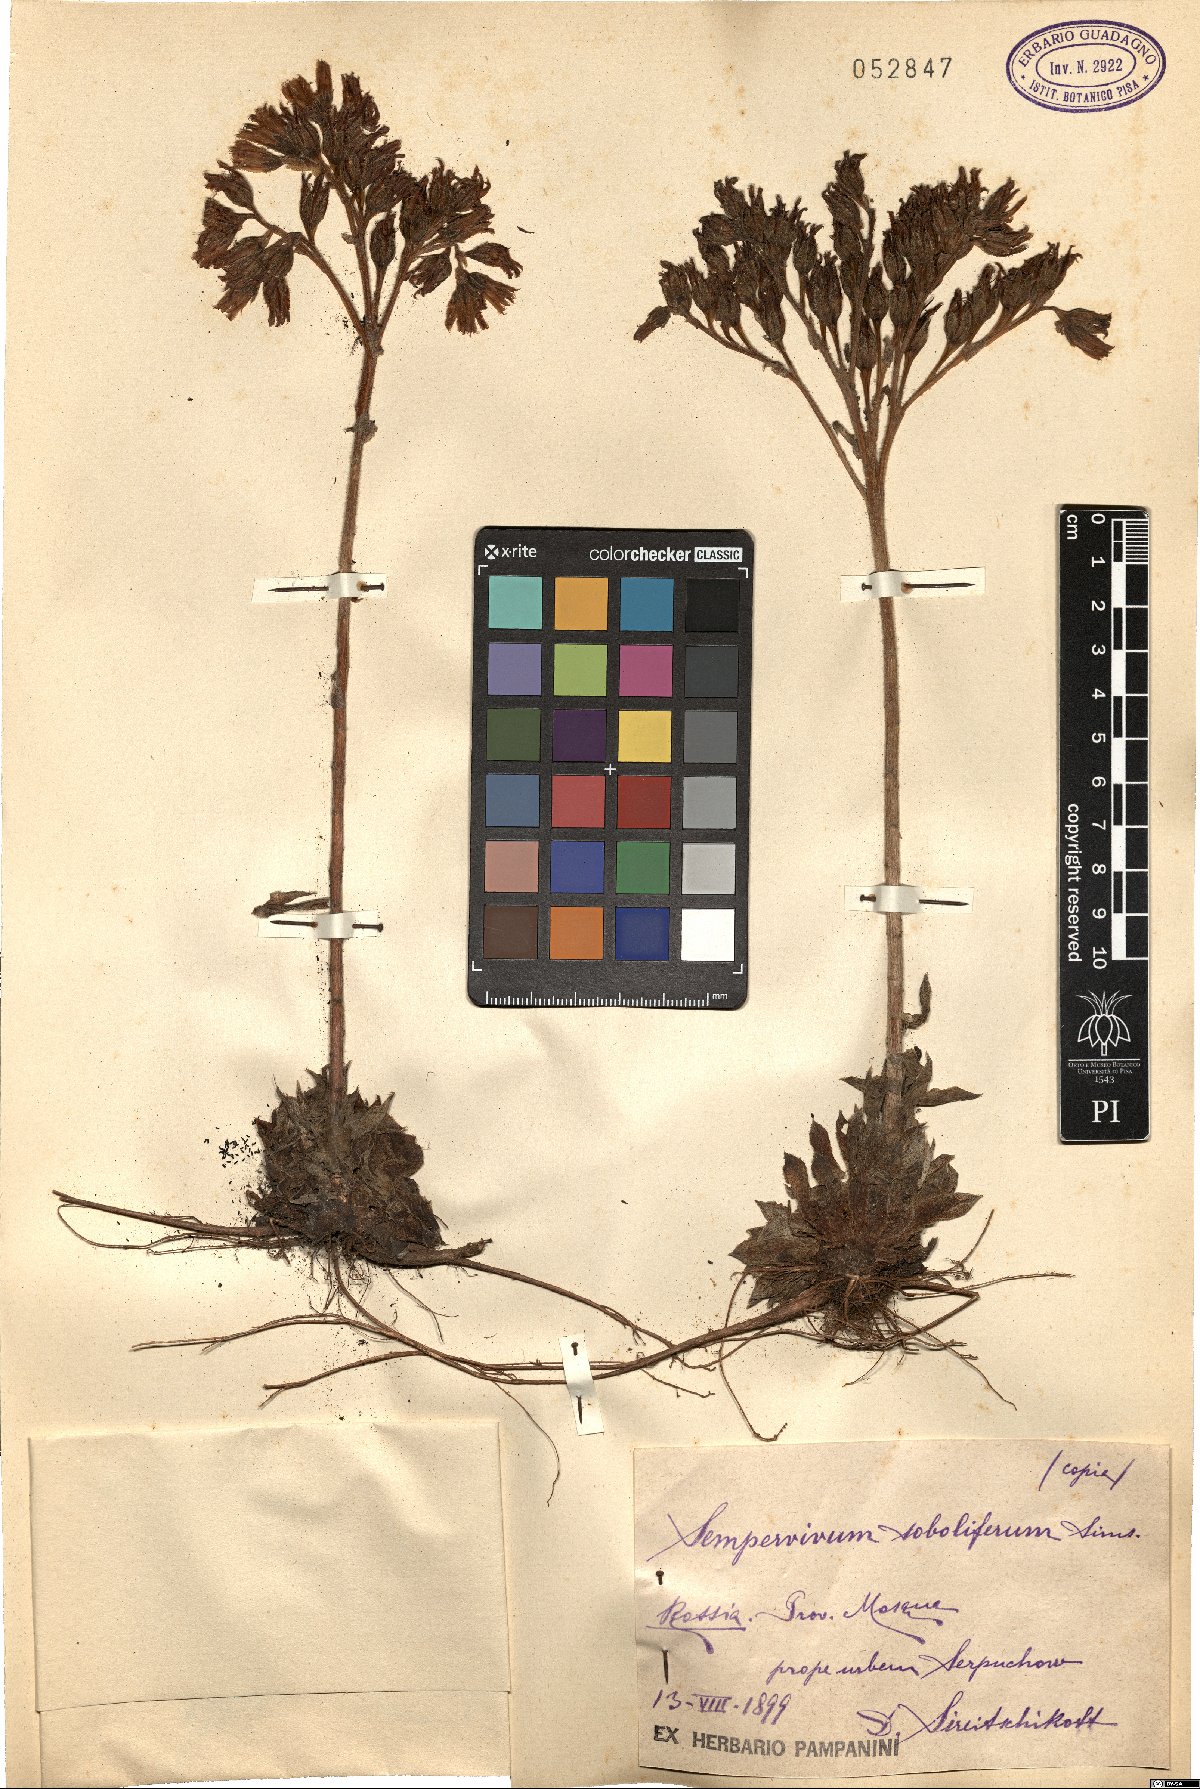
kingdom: Plantae
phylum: Tracheophyta
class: Magnoliopsida
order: Saxifragales
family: Crassulaceae
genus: Sempervivum
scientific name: Sempervivum globiferum
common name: Rolling hen-and-chicks
